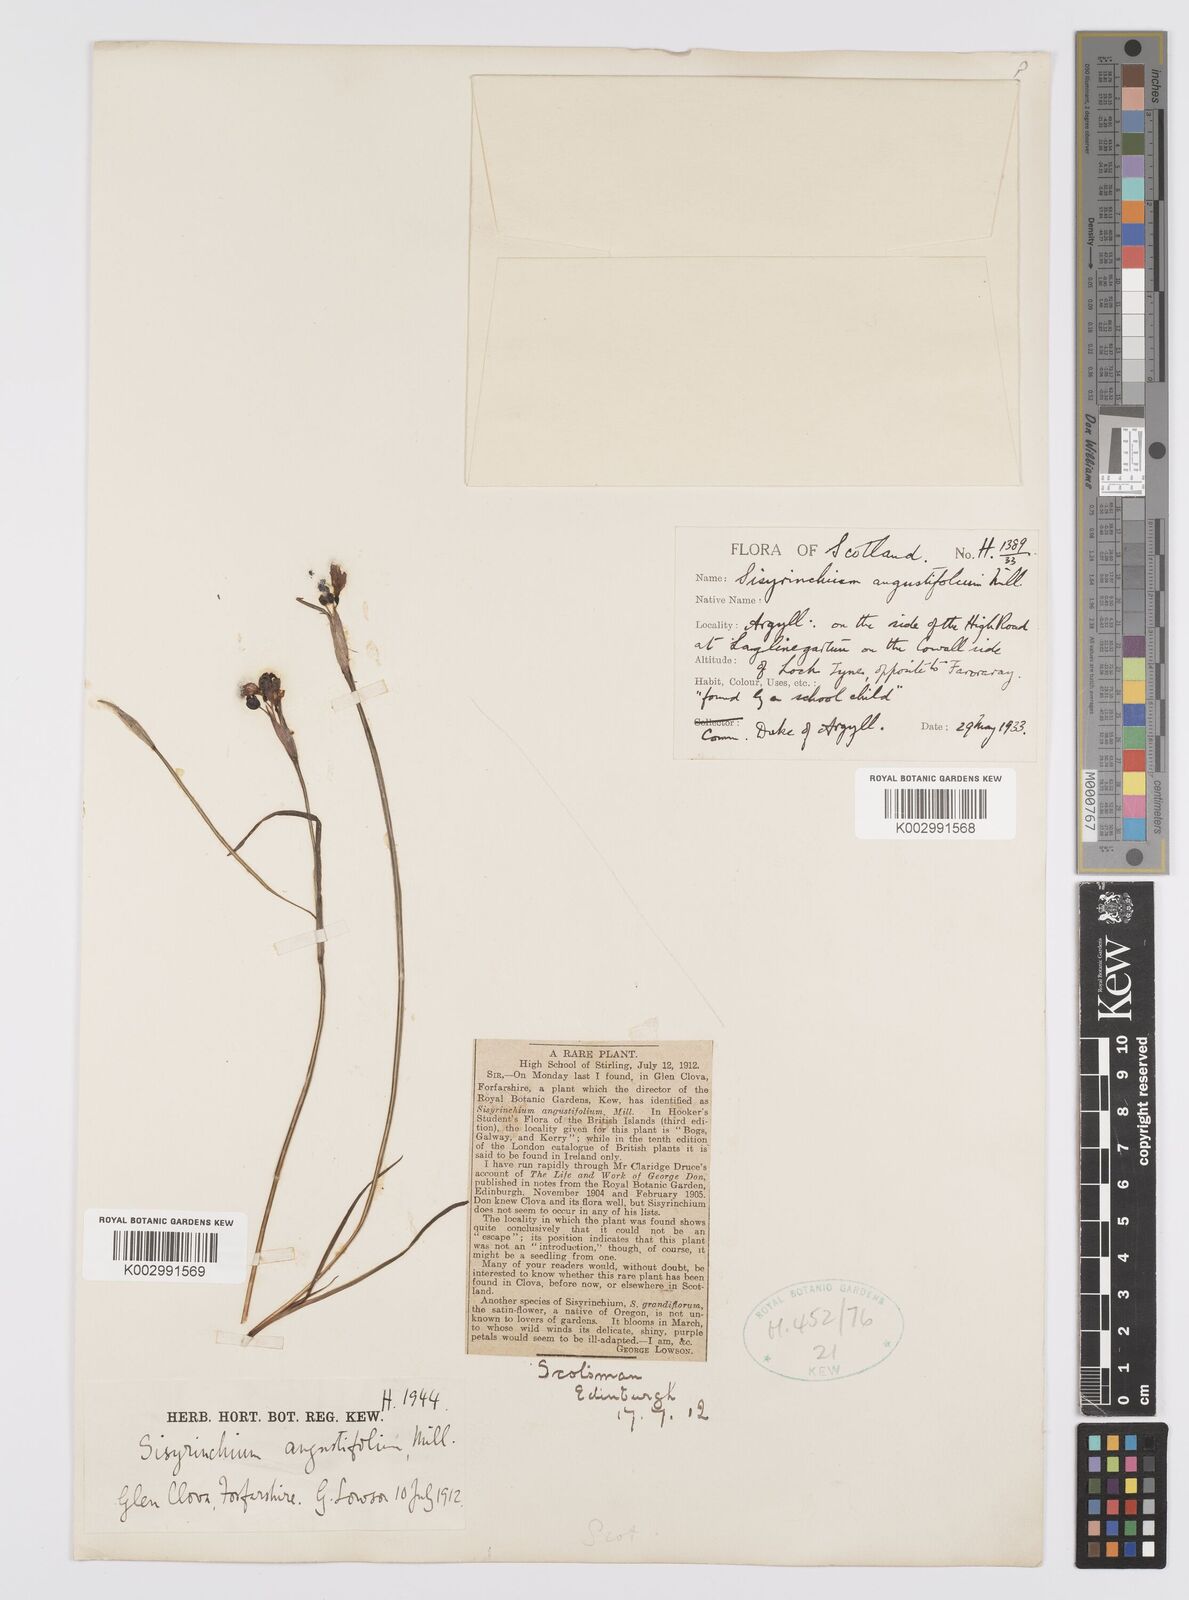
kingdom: Plantae
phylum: Tracheophyta
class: Liliopsida
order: Asparagales
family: Iridaceae
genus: Sisyrinchium
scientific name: Sisyrinchium angustifolium
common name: Narrow-leaf blue-eyed-grass
